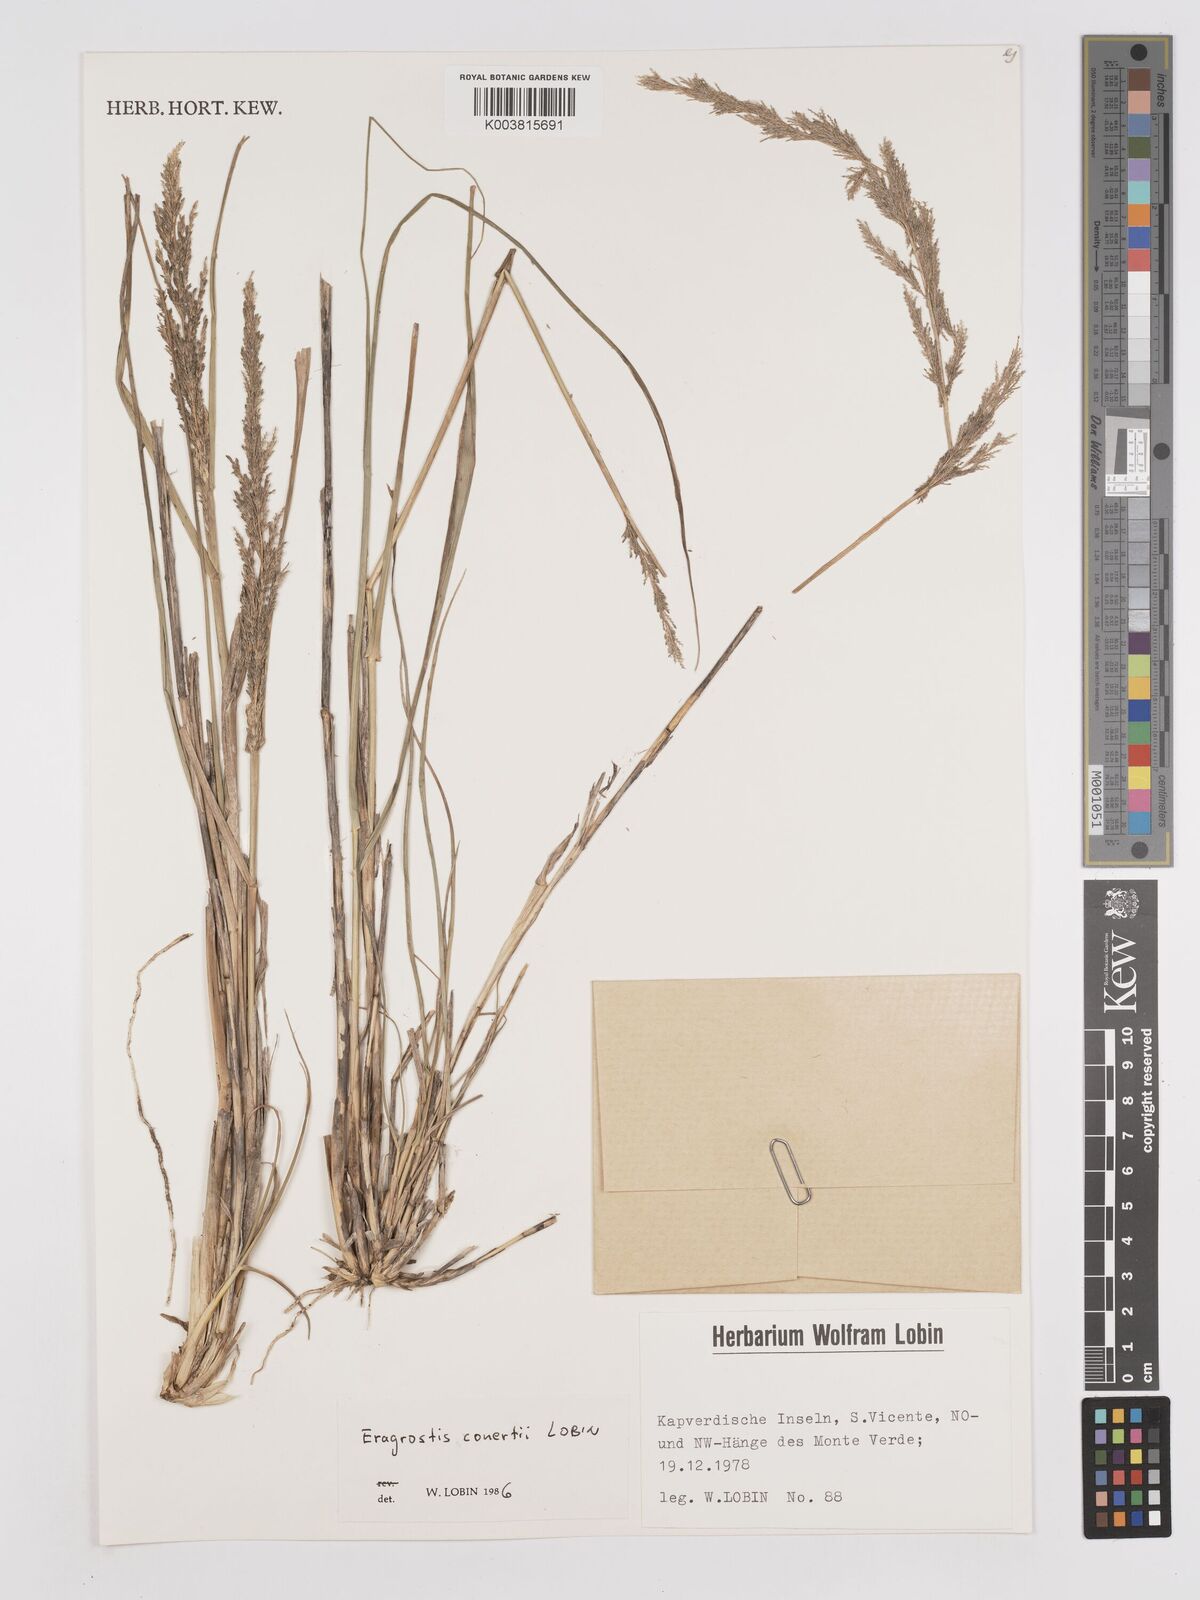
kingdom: Plantae
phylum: Tracheophyta
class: Liliopsida
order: Poales
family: Poaceae
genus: Eragrostis
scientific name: Eragrostis conertii
